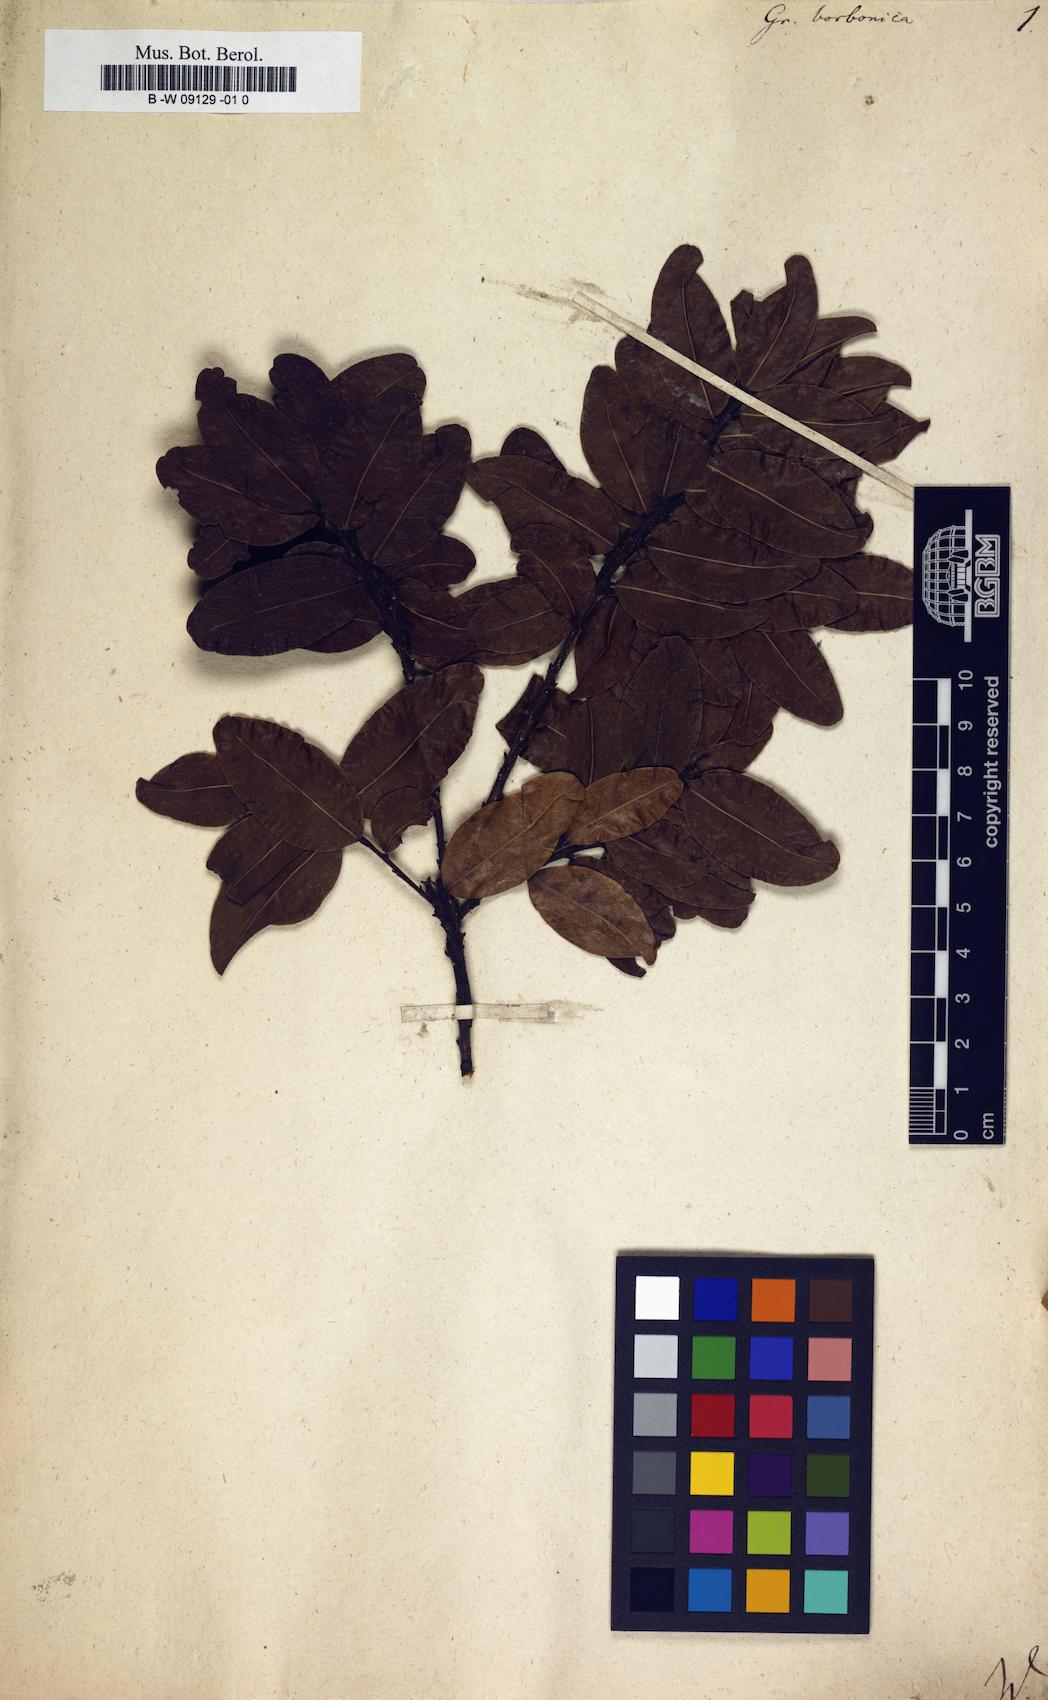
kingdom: Plantae
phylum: Tracheophyta
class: Magnoliopsida
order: Malpighiales
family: Chrysobalanaceae
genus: Grangeria
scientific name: Grangeria borbonica
